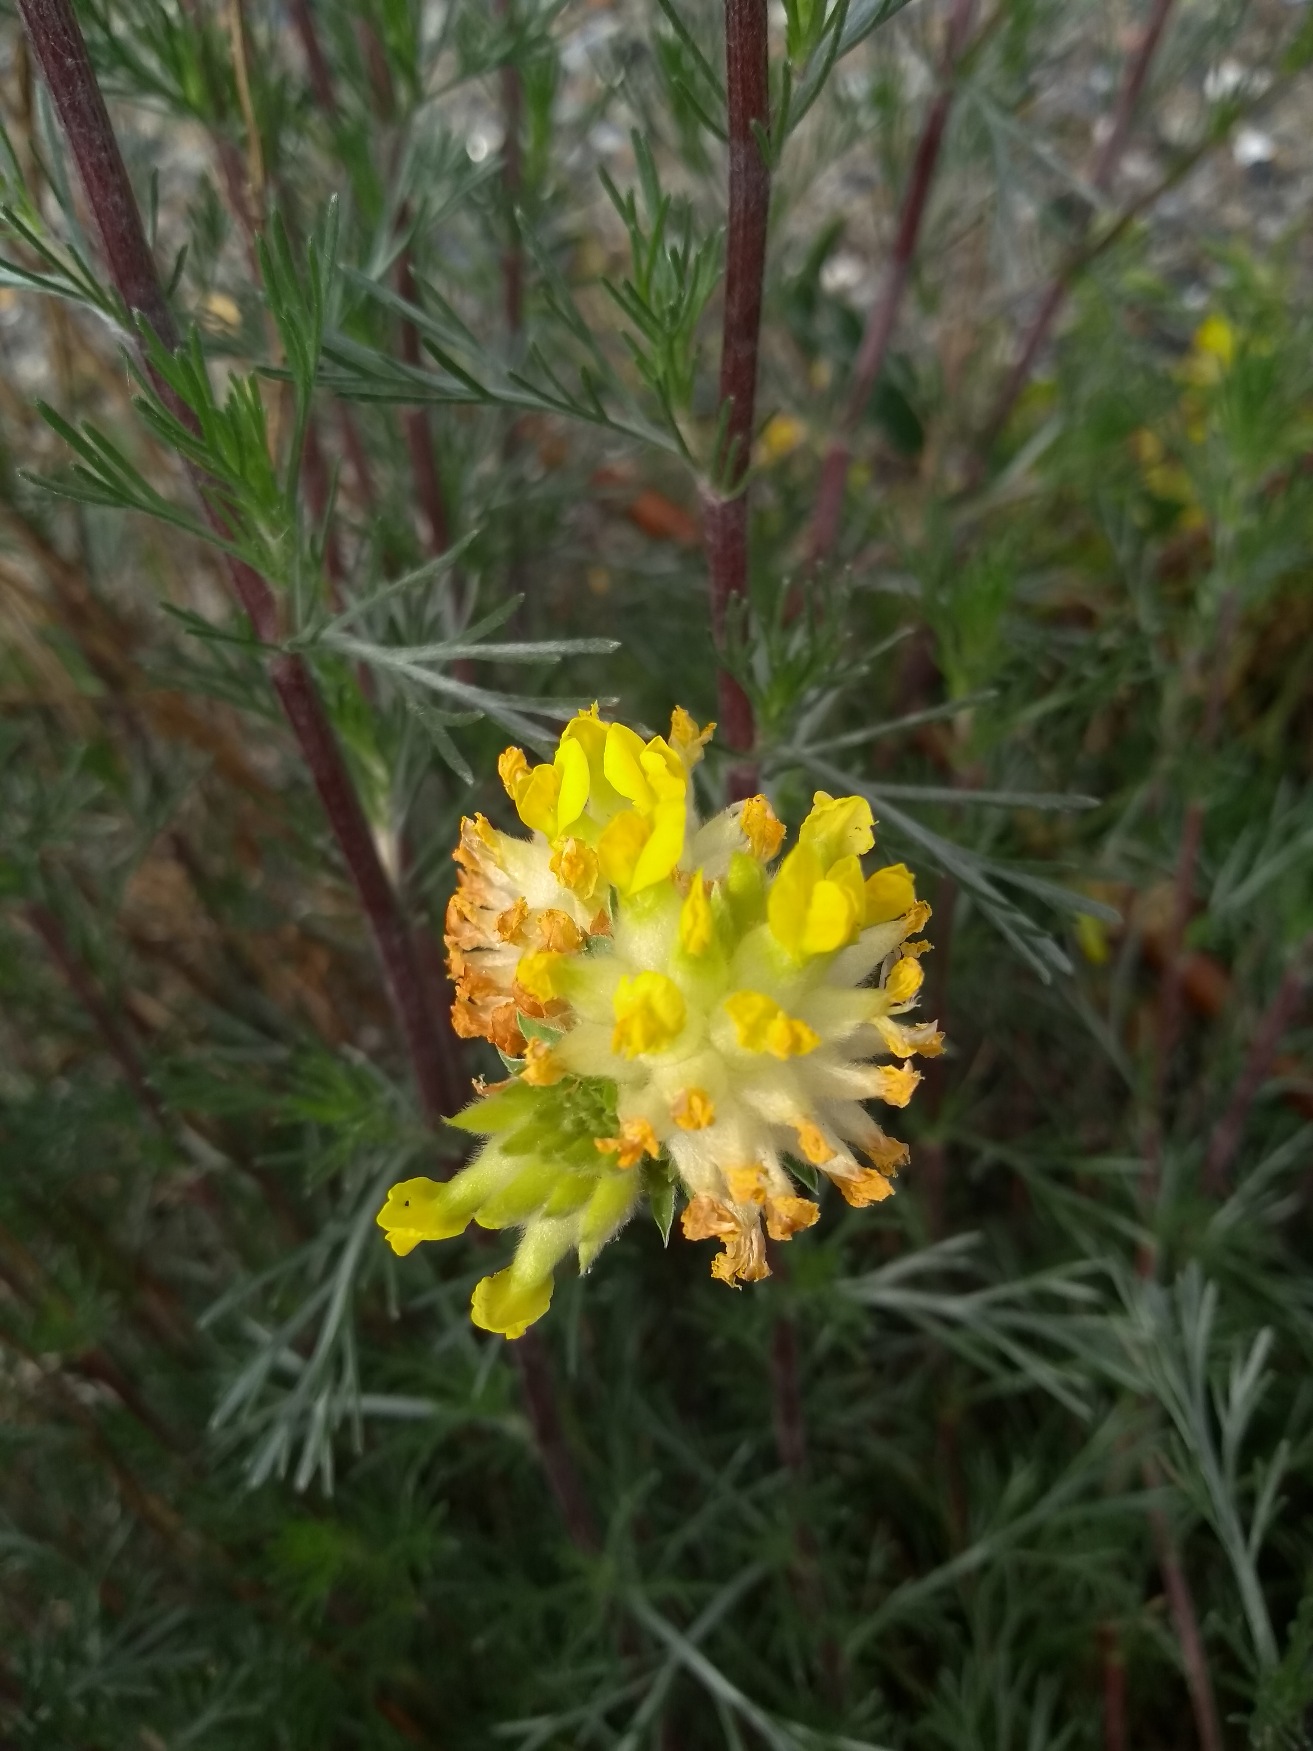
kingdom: Plantae
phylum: Tracheophyta
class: Magnoliopsida
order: Fabales
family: Fabaceae
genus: Anthyllis
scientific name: Anthyllis vulneraria
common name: Rundbælg
